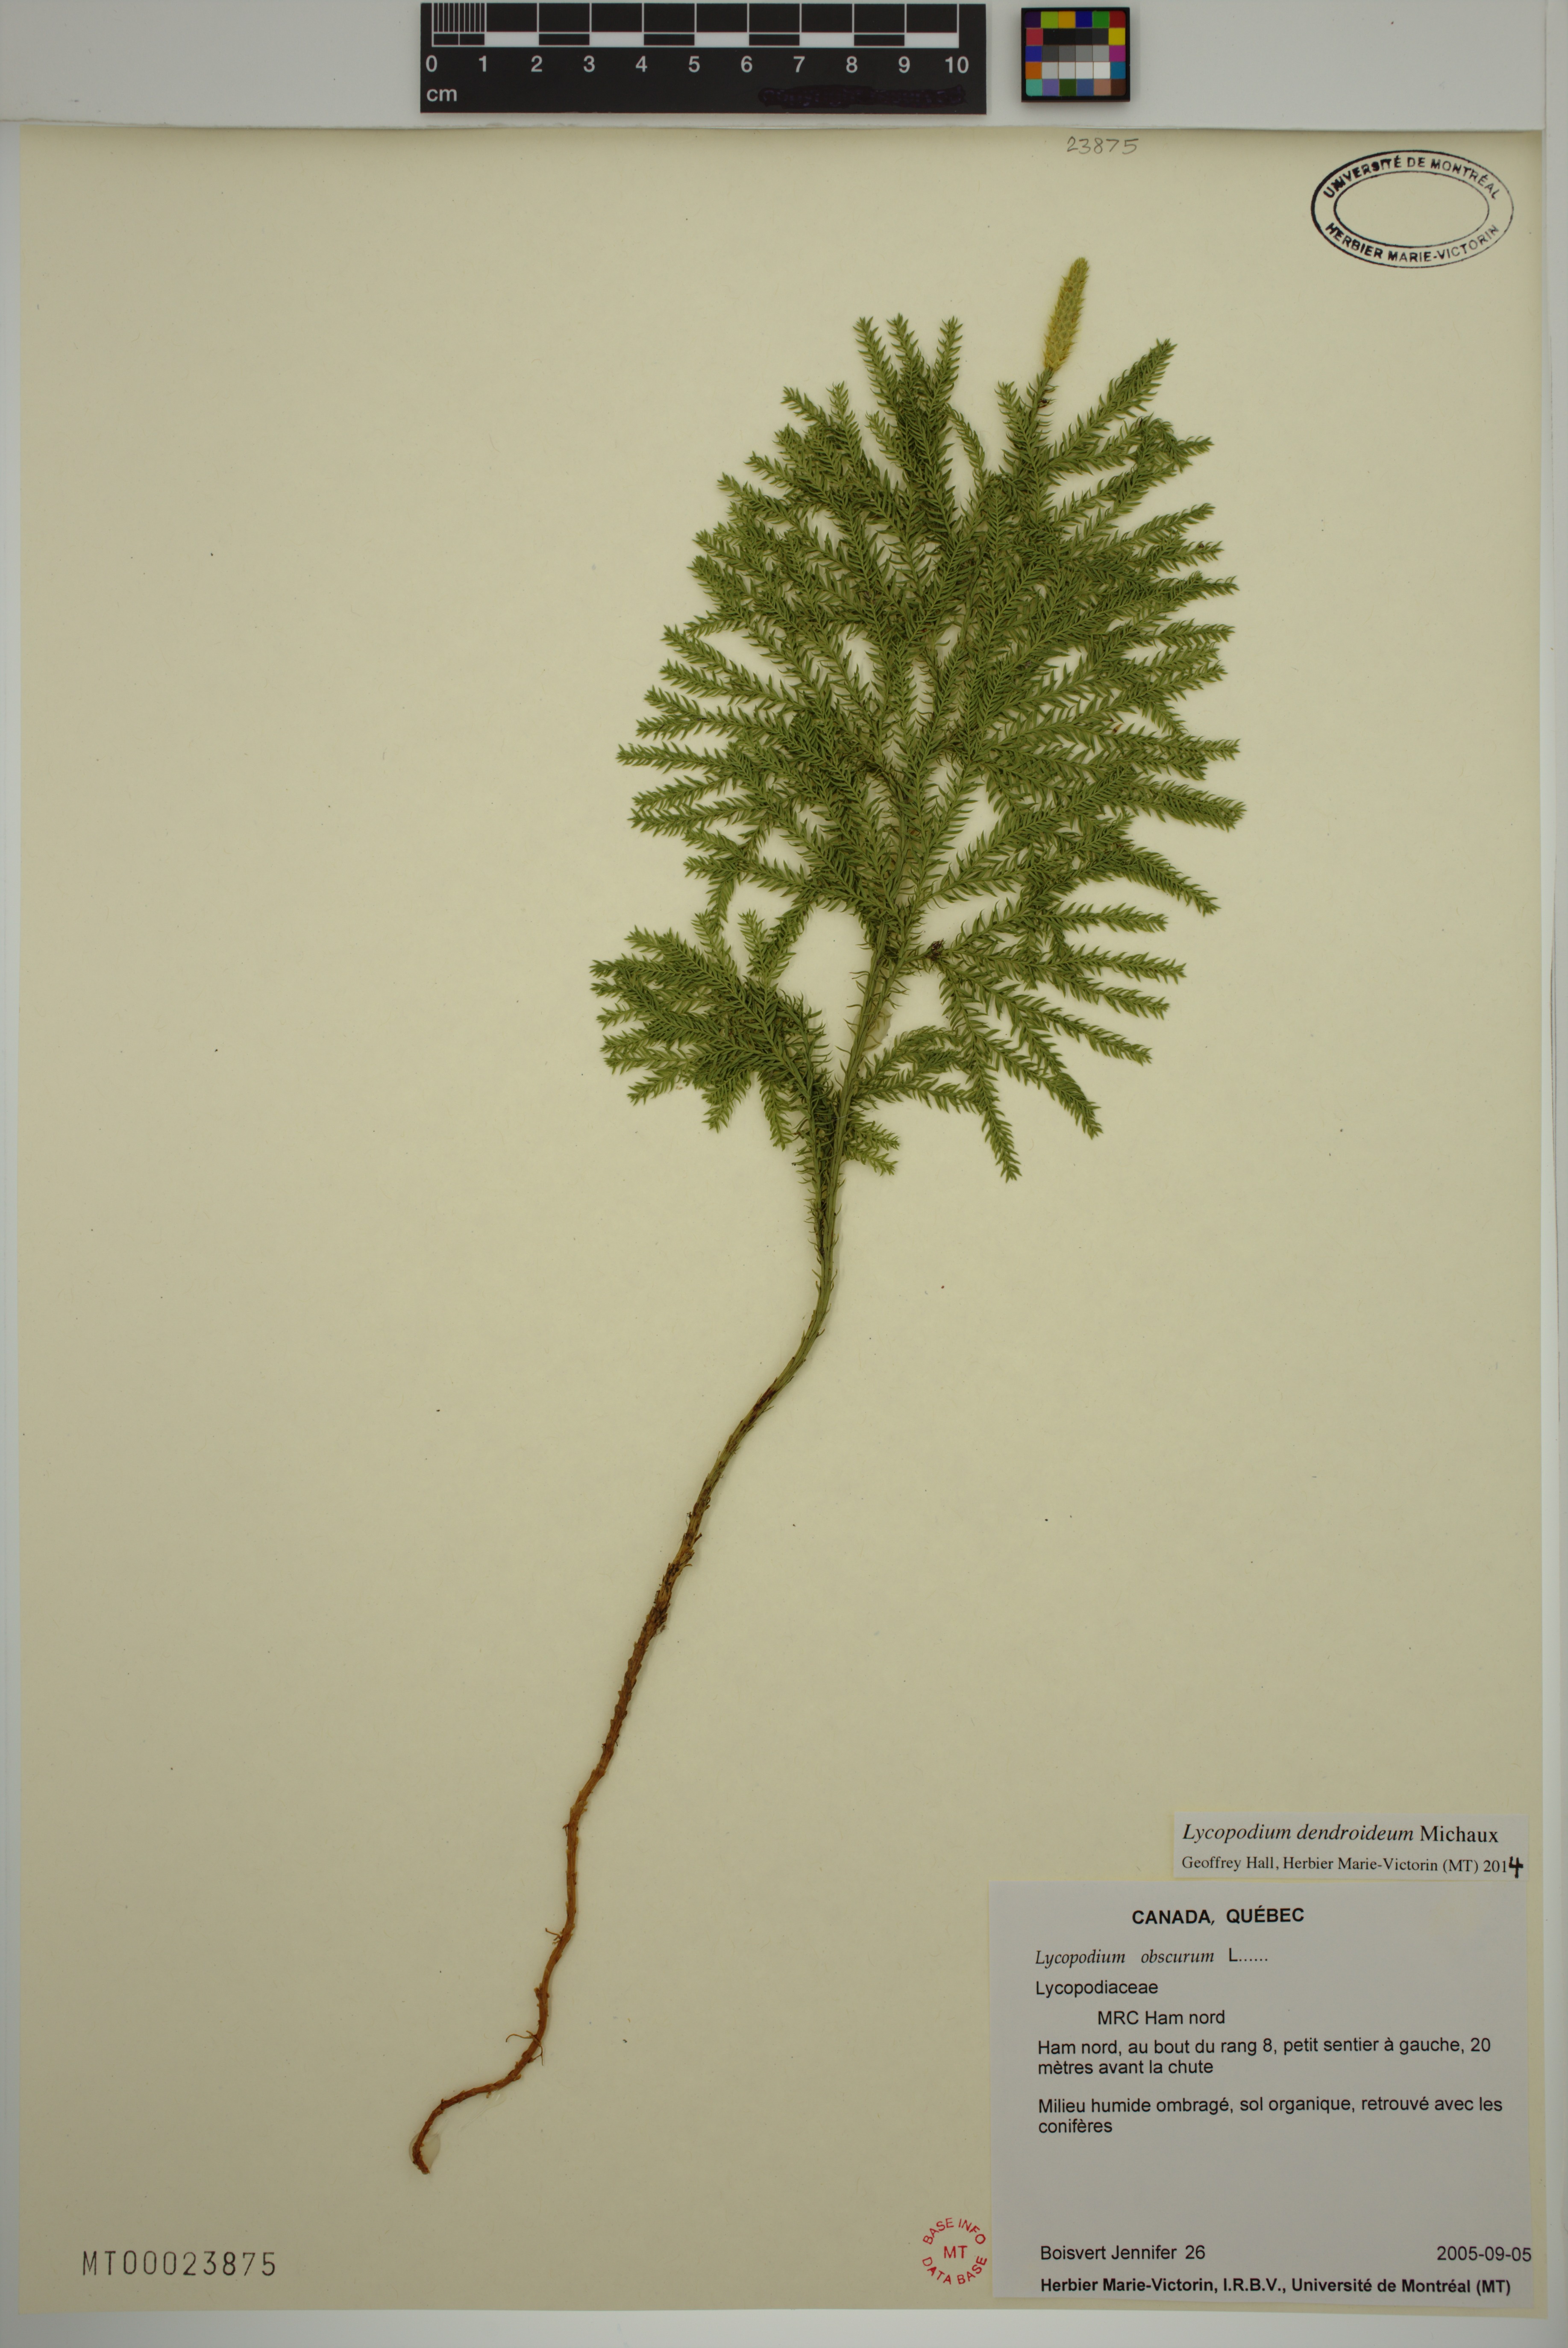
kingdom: Plantae
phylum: Tracheophyta
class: Lycopodiopsida
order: Lycopodiales
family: Lycopodiaceae
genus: Dendrolycopodium
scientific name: Dendrolycopodium dendroideum
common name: Northern tree-clubmoss
